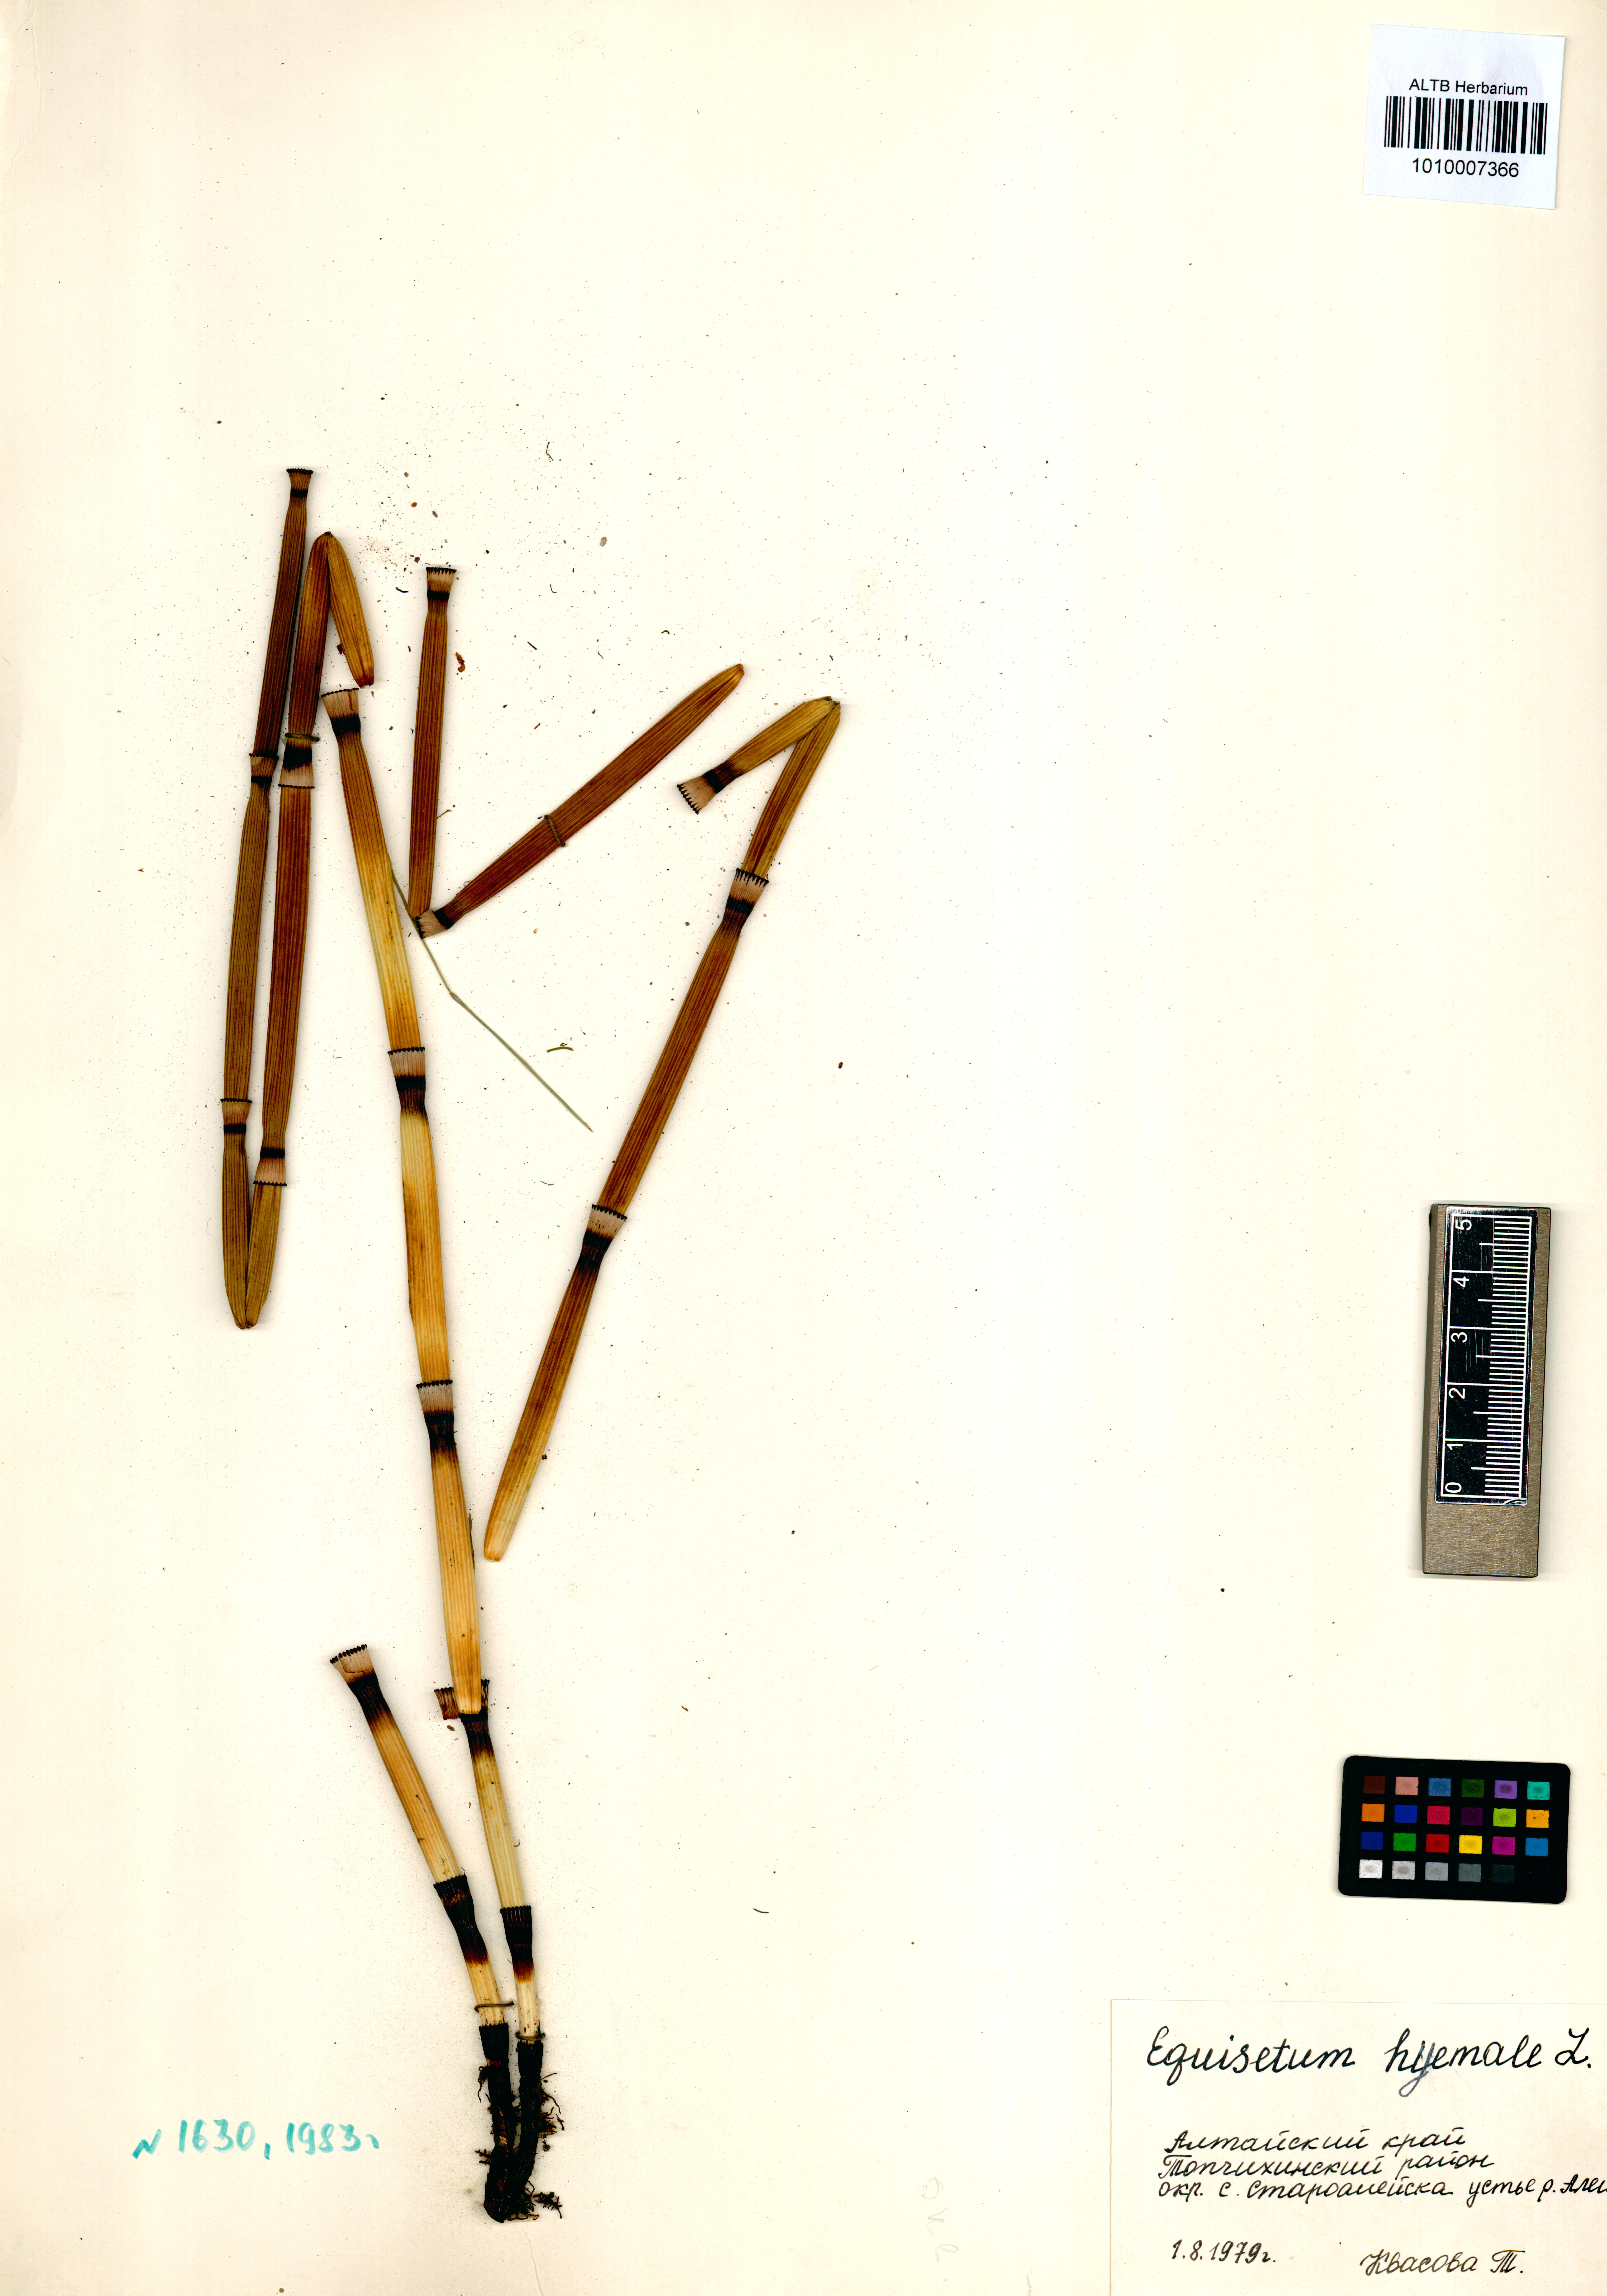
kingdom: Plantae
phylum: Tracheophyta
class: Polypodiopsida
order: Equisetales
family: Equisetaceae
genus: Equisetum
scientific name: Equisetum hyemale
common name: Rough horsetail
